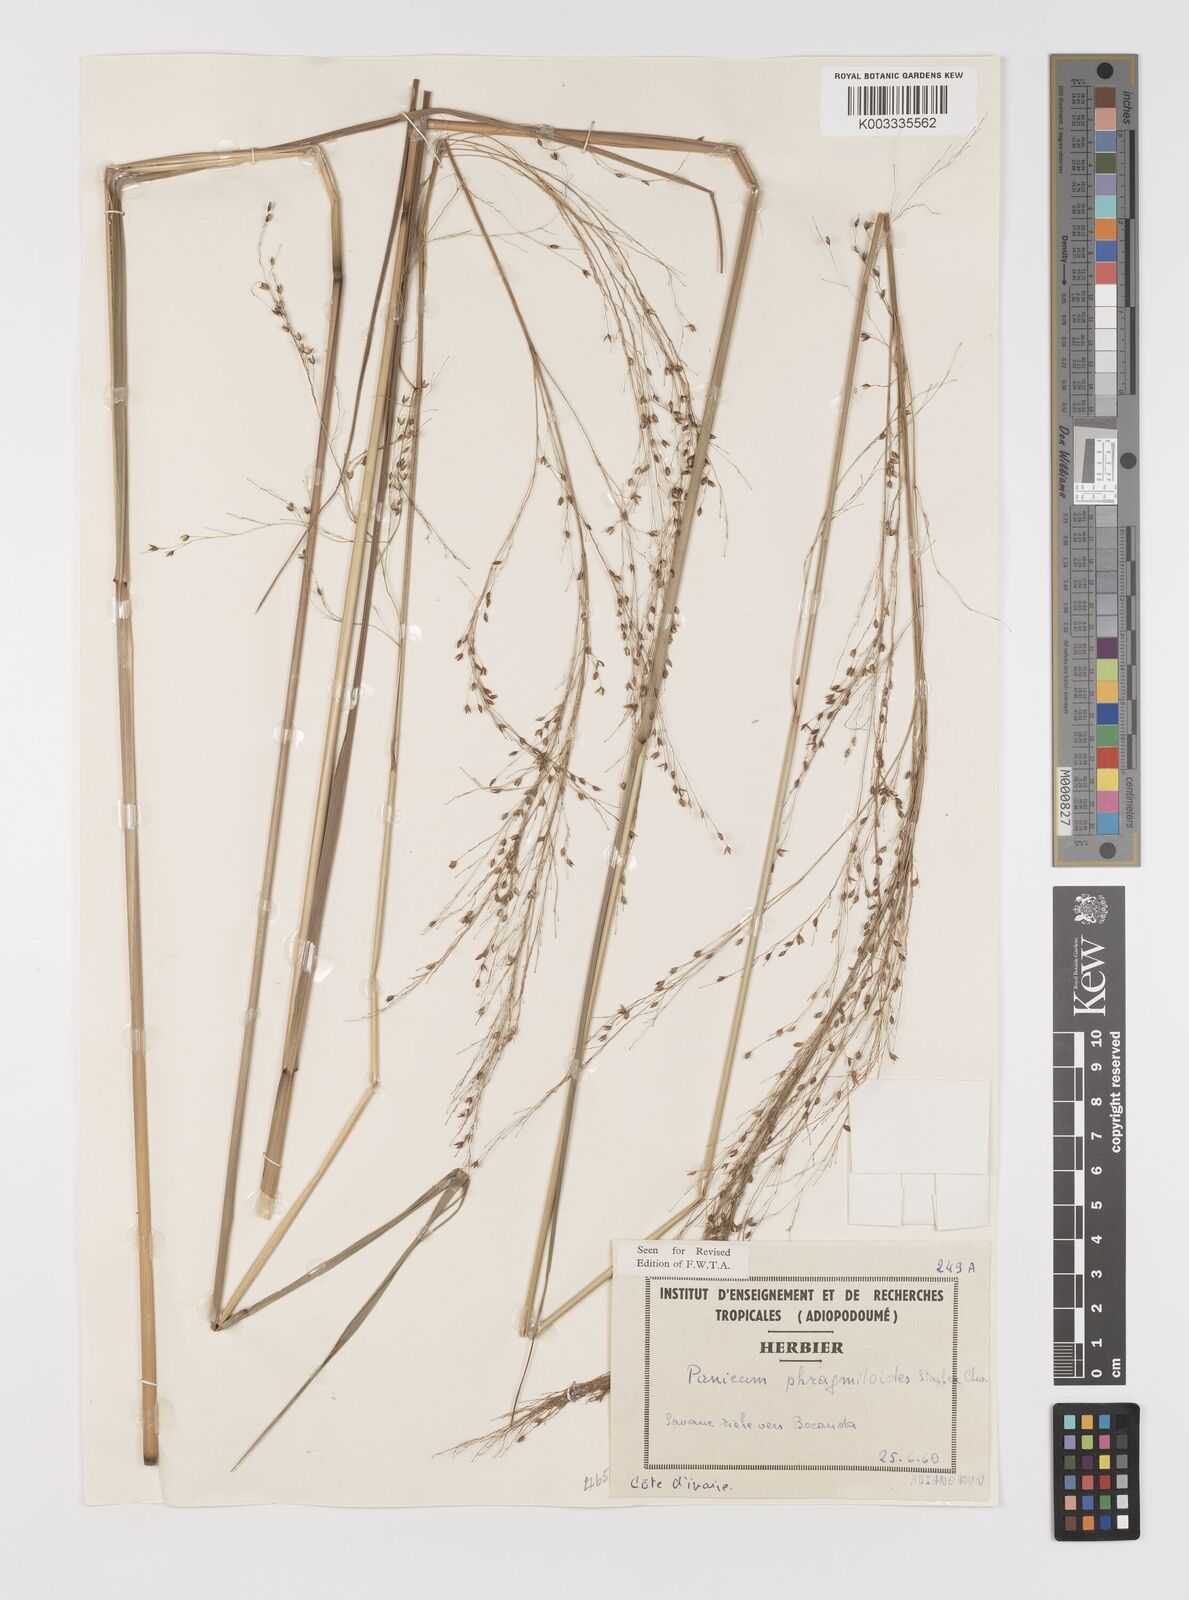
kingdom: Plantae
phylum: Tracheophyta
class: Liliopsida
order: Poales
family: Poaceae
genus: Panicum
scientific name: Panicum phragmitoides
